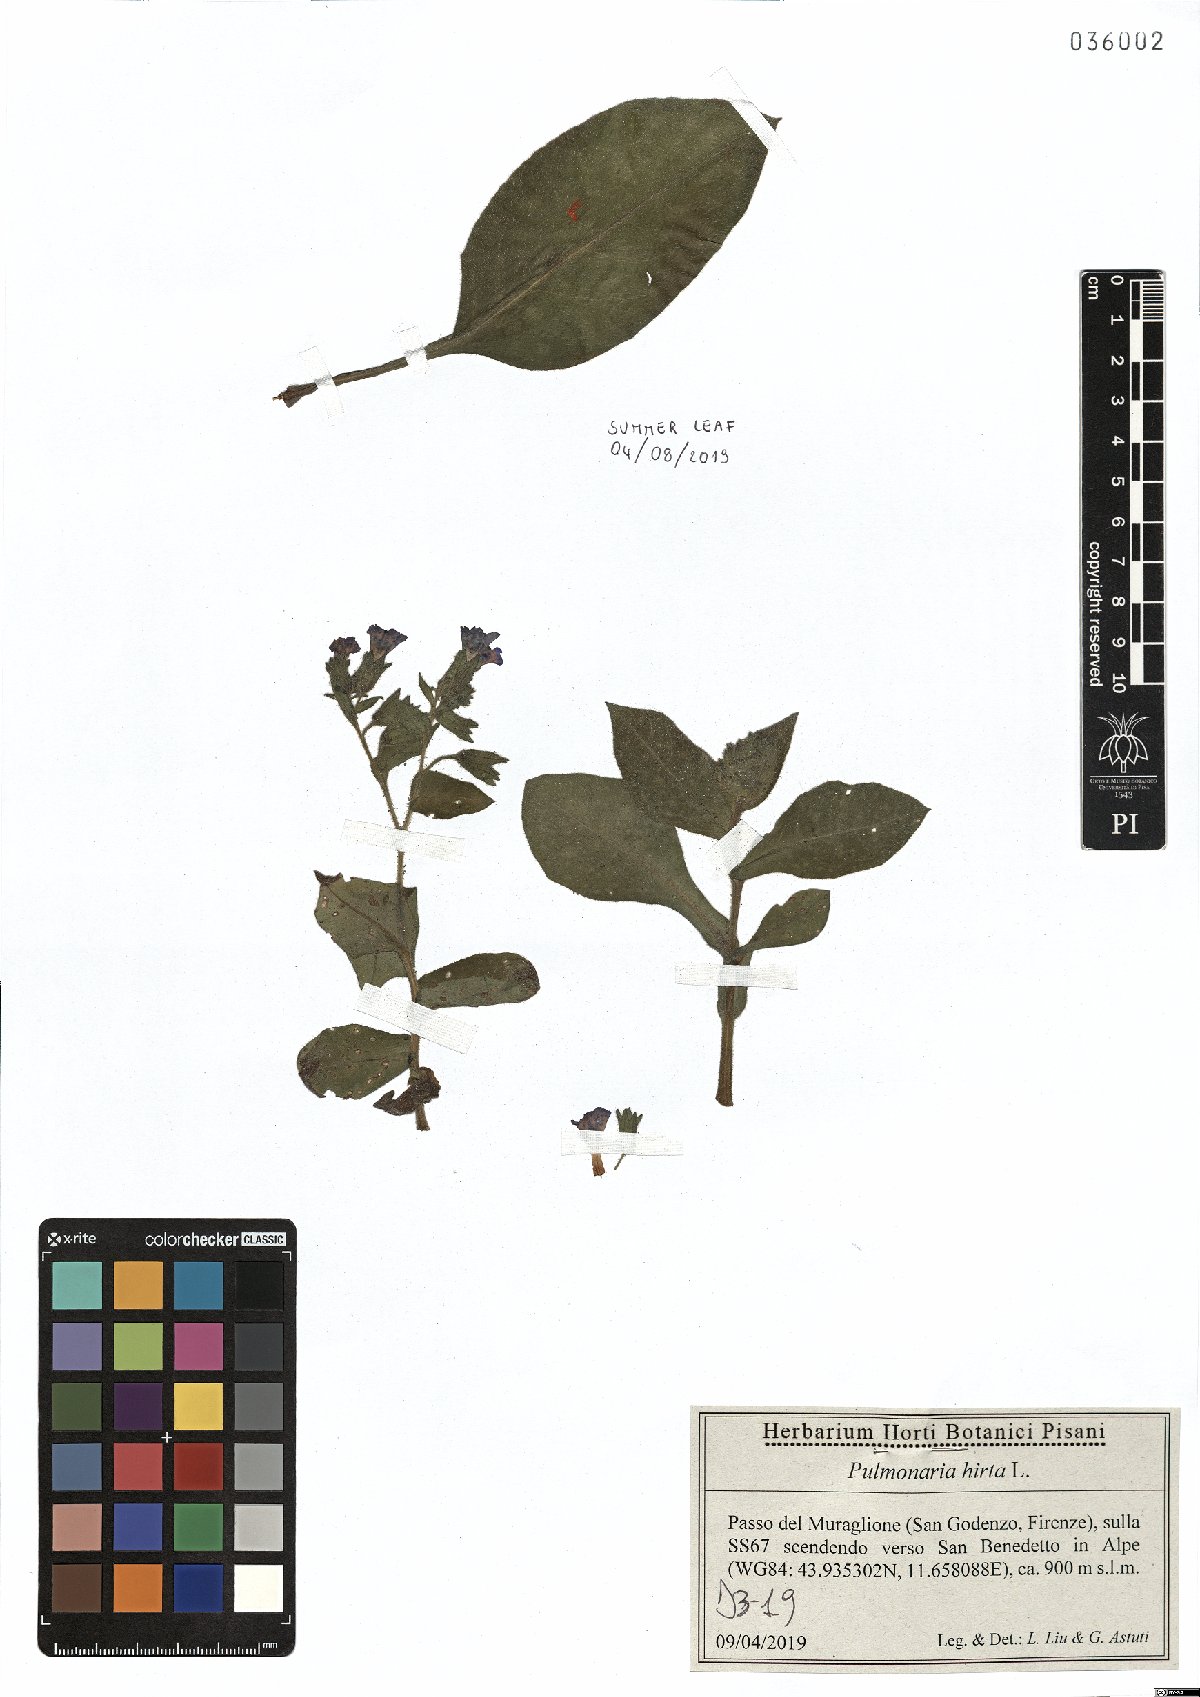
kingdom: Plantae
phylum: Tracheophyta
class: Magnoliopsida
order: Boraginales
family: Boraginaceae
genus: Pulmonaria
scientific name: Pulmonaria hirta
